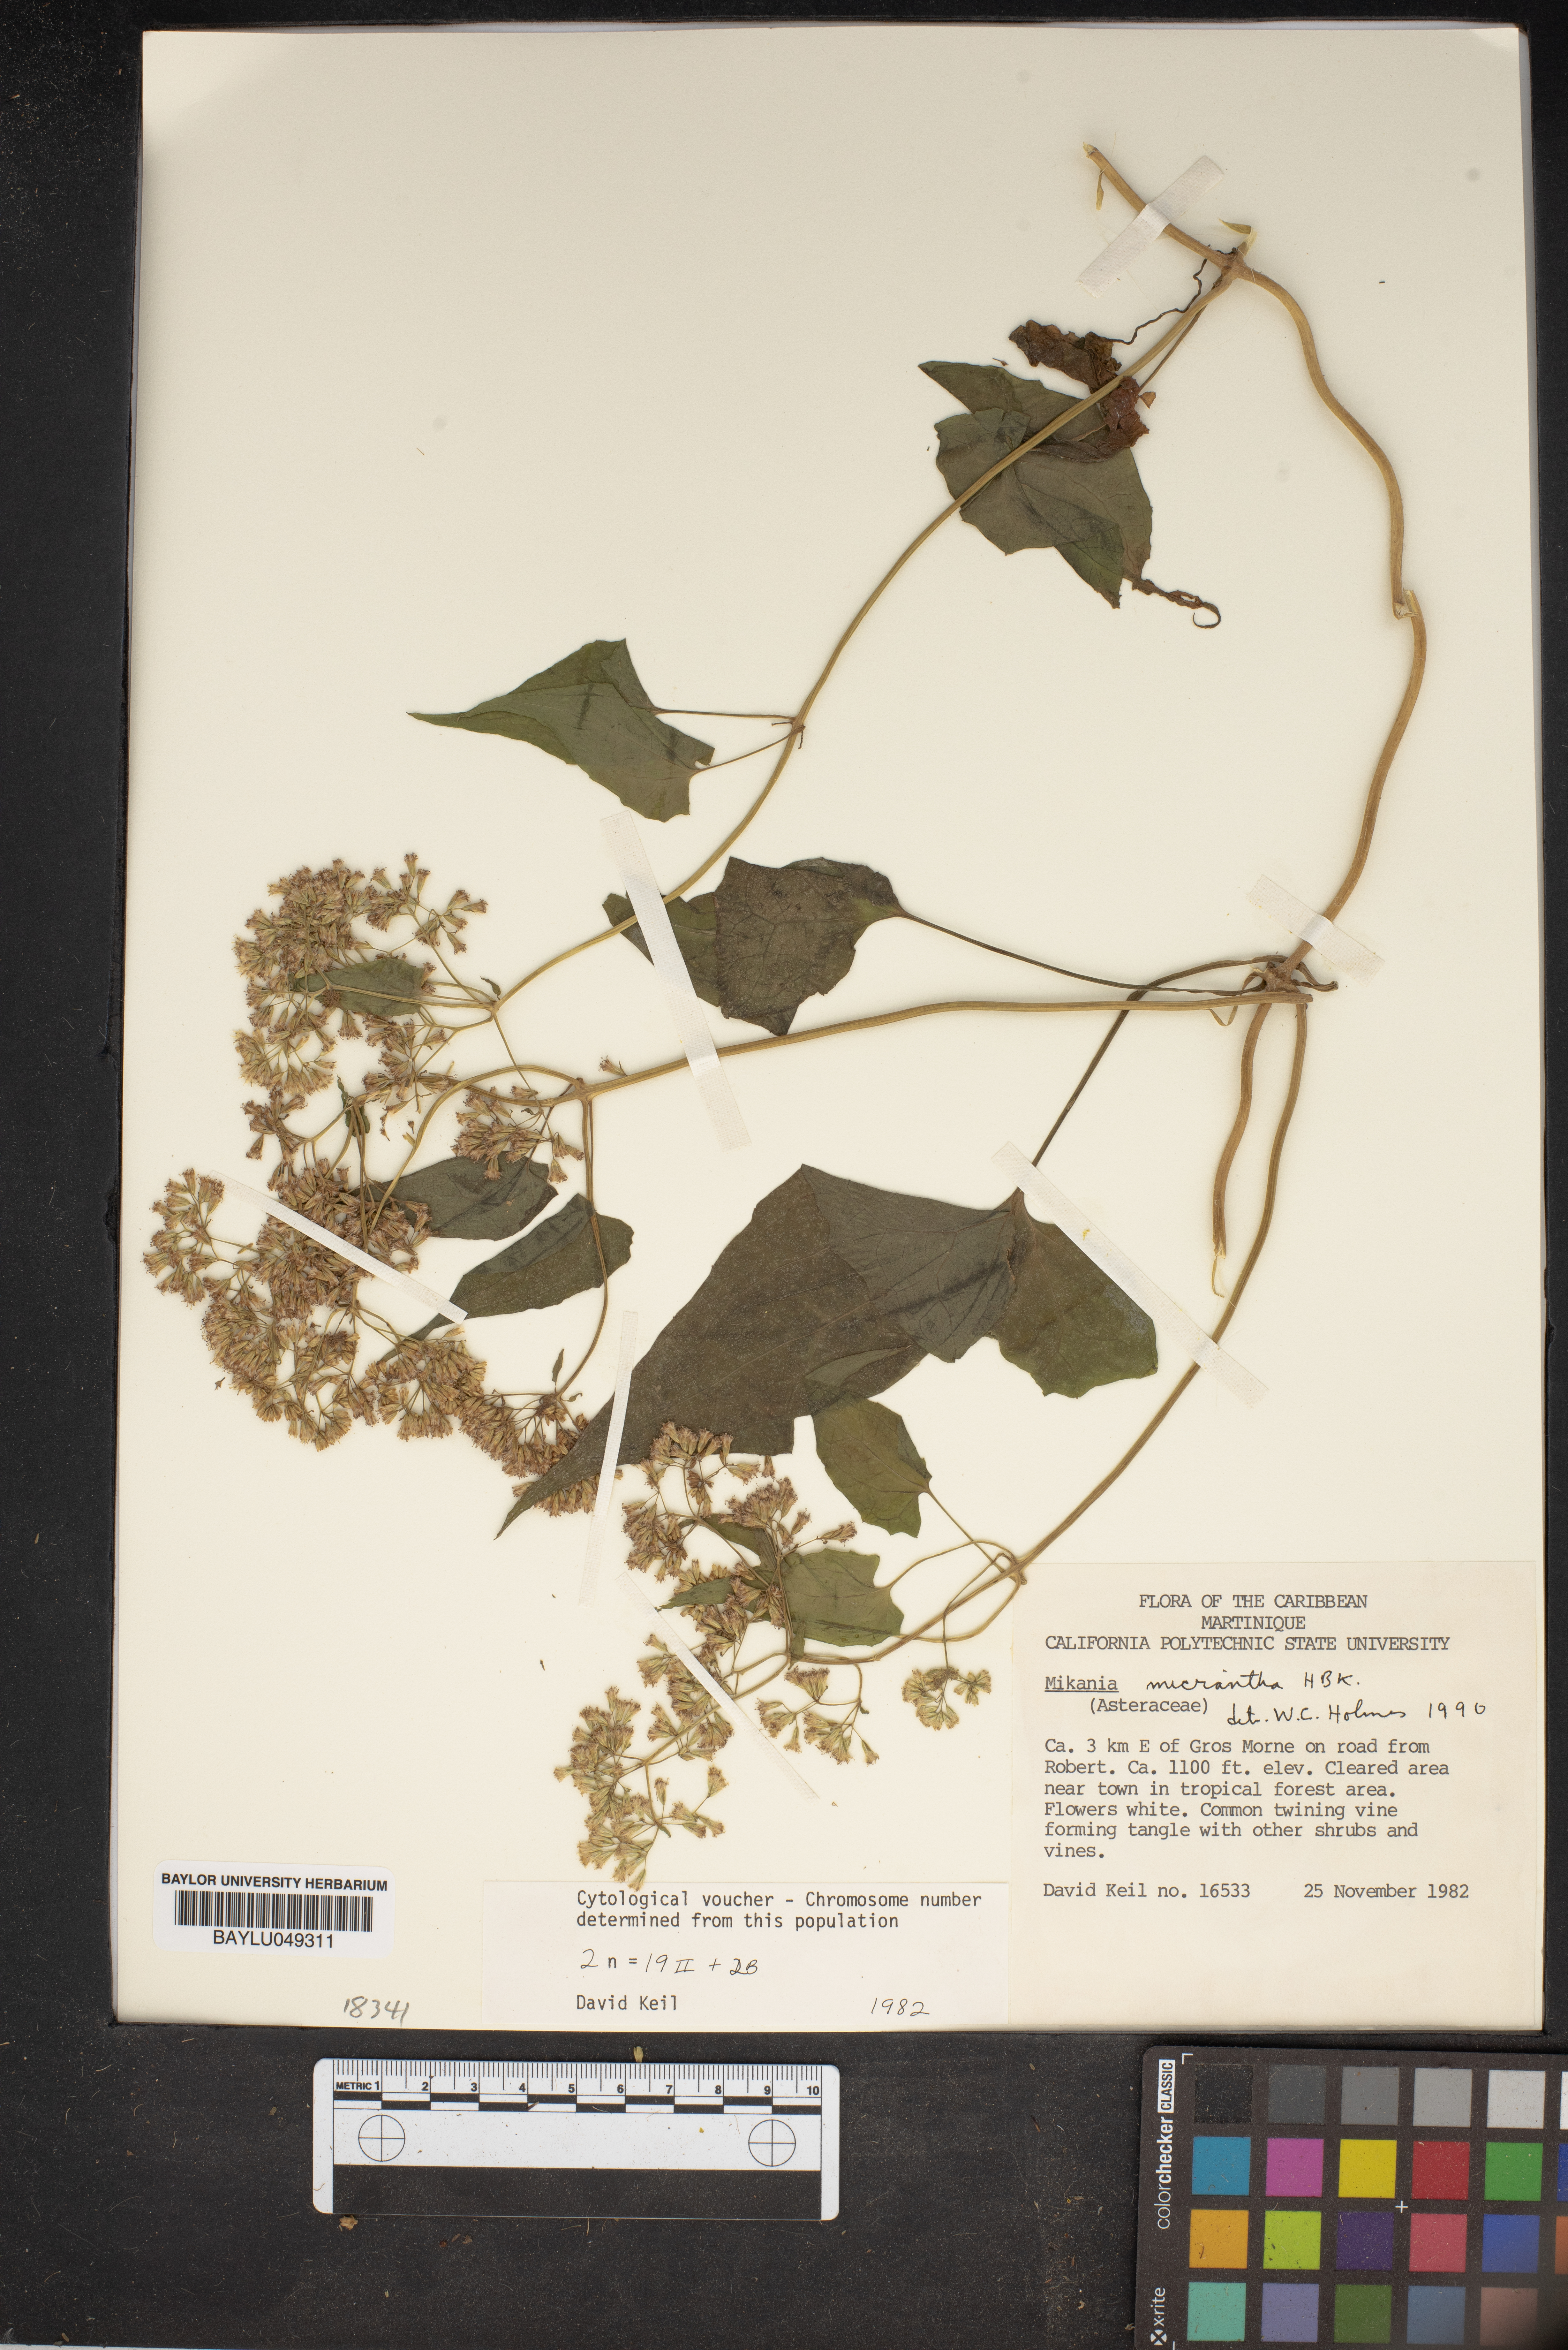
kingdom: Plantae
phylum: Tracheophyta
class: Magnoliopsida
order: Asterales
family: Asteraceae
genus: Mikania
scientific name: Mikania micrantha
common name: Mile-a-minute
